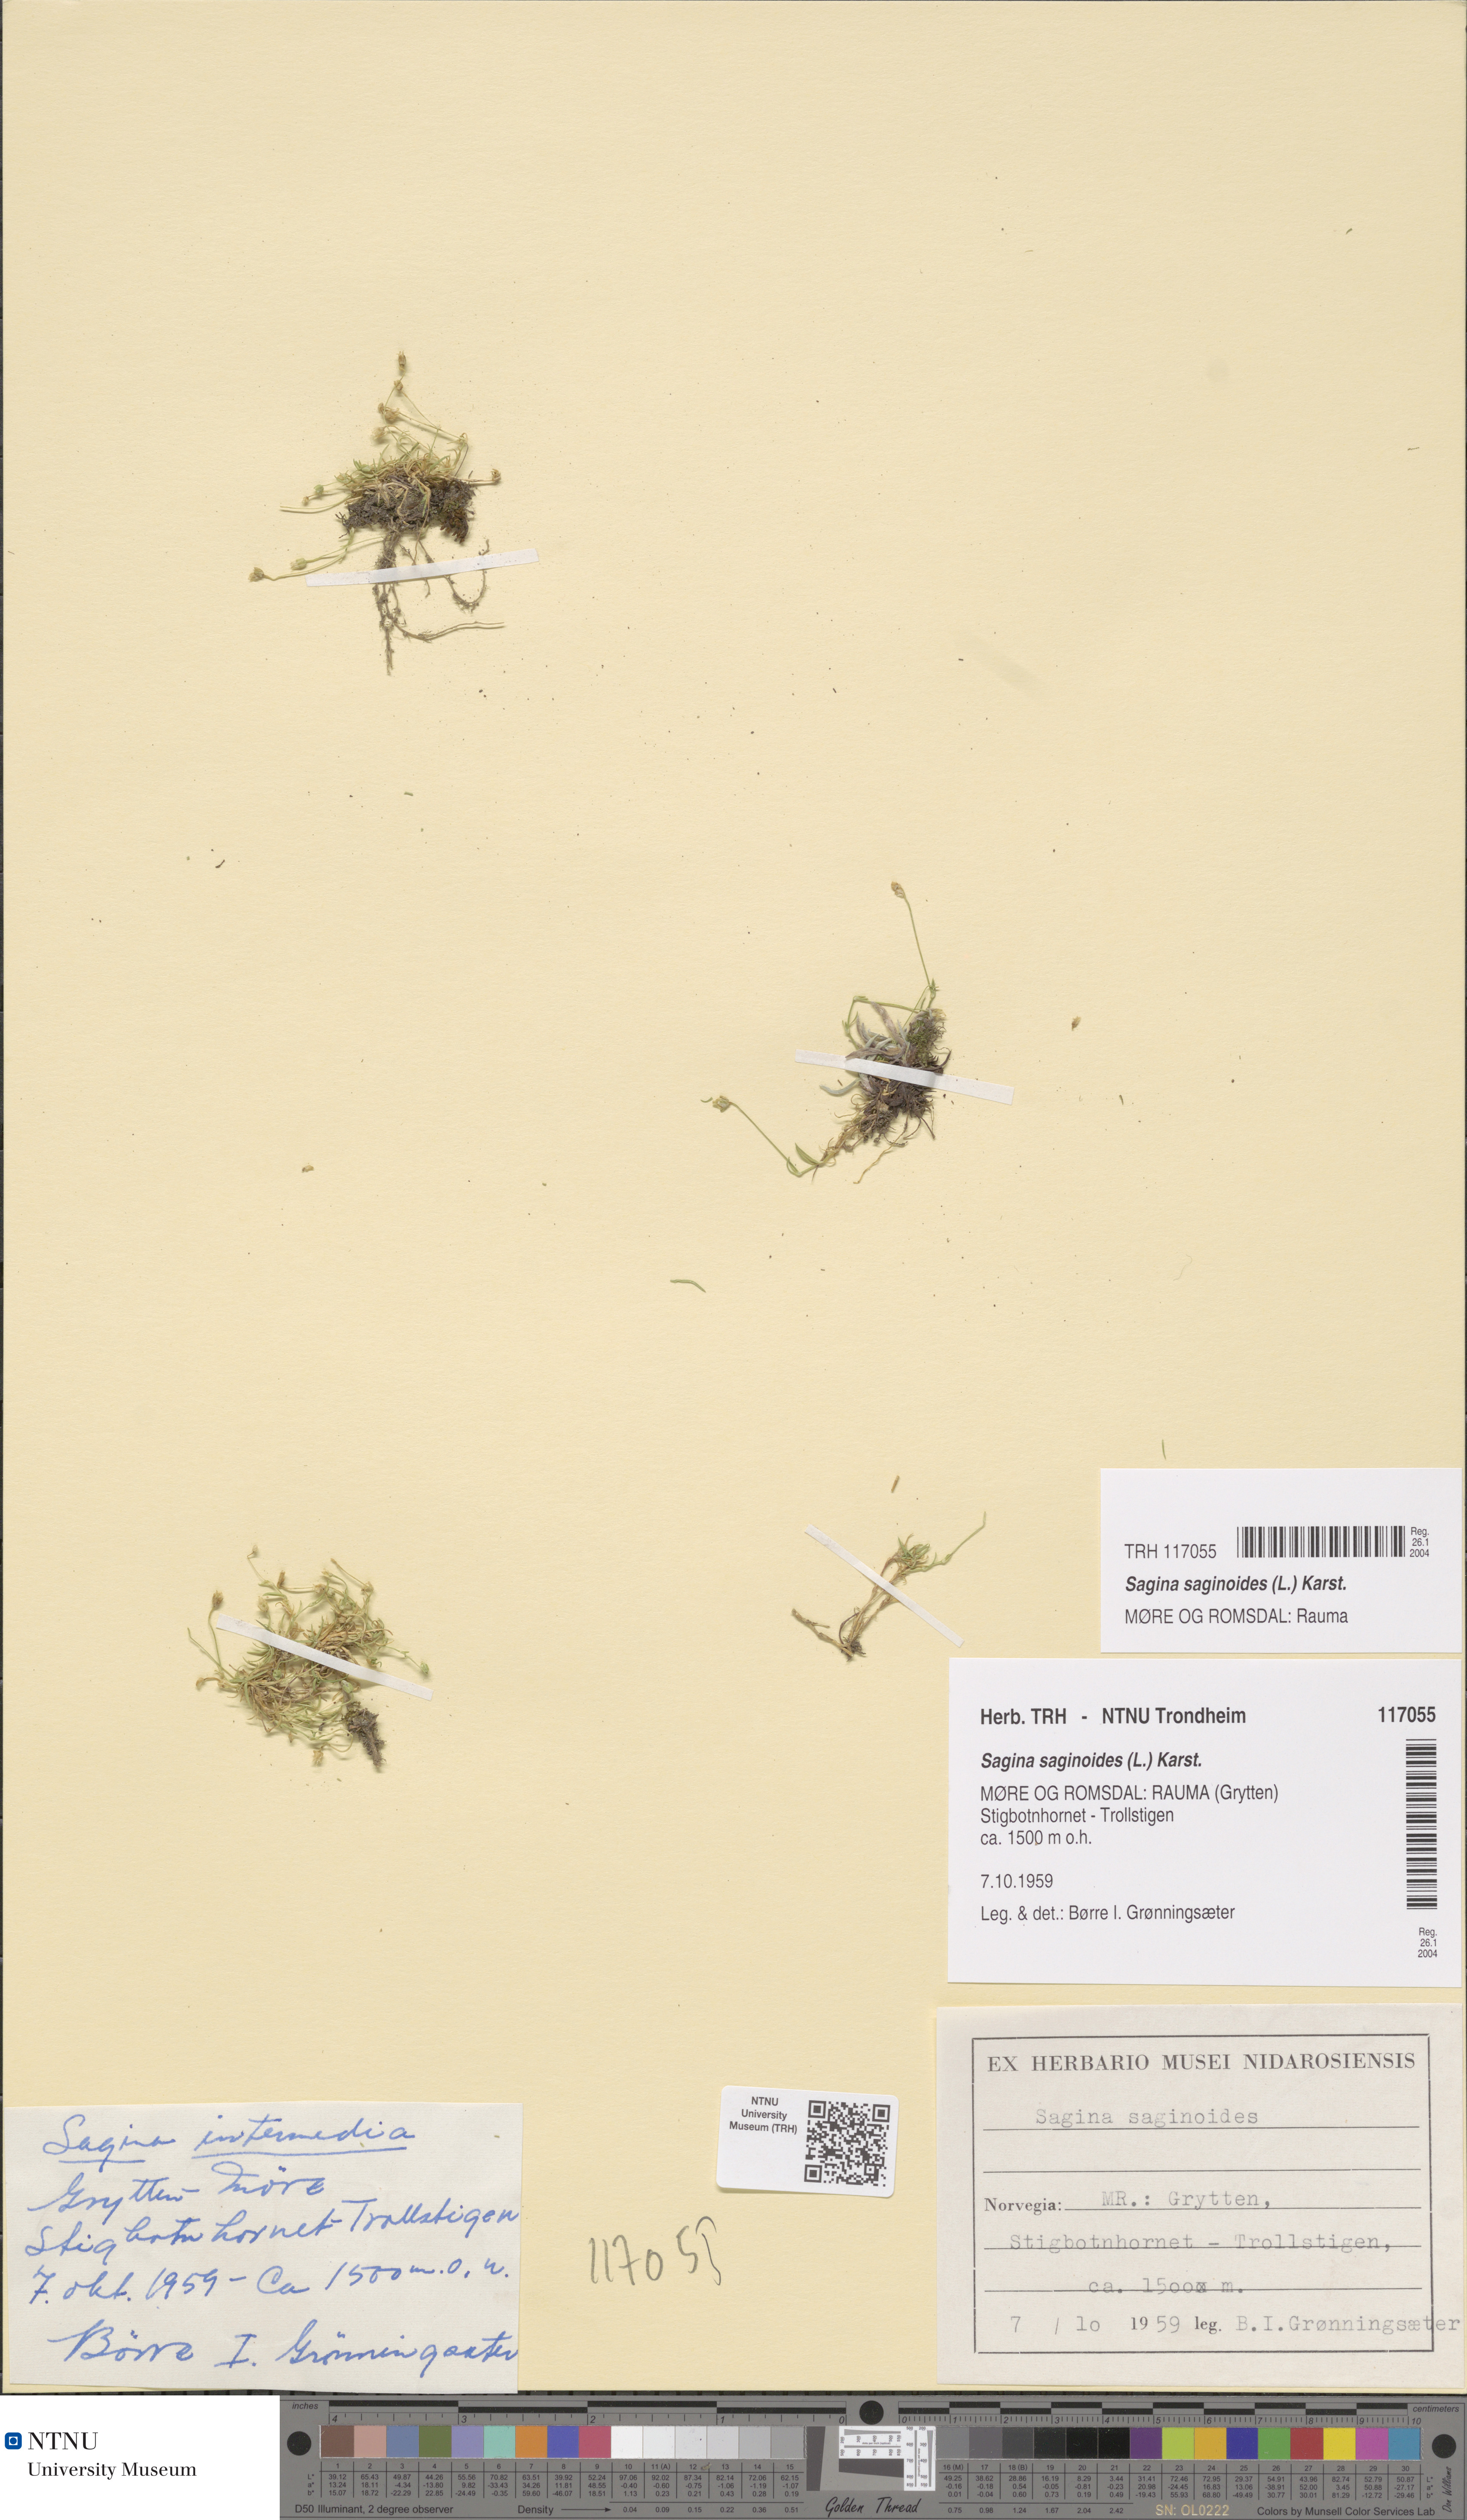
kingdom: Plantae
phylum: Tracheophyta
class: Magnoliopsida
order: Caryophyllales
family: Caryophyllaceae
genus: Sagina
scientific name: Sagina saginoides
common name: Alpine pearlwort
